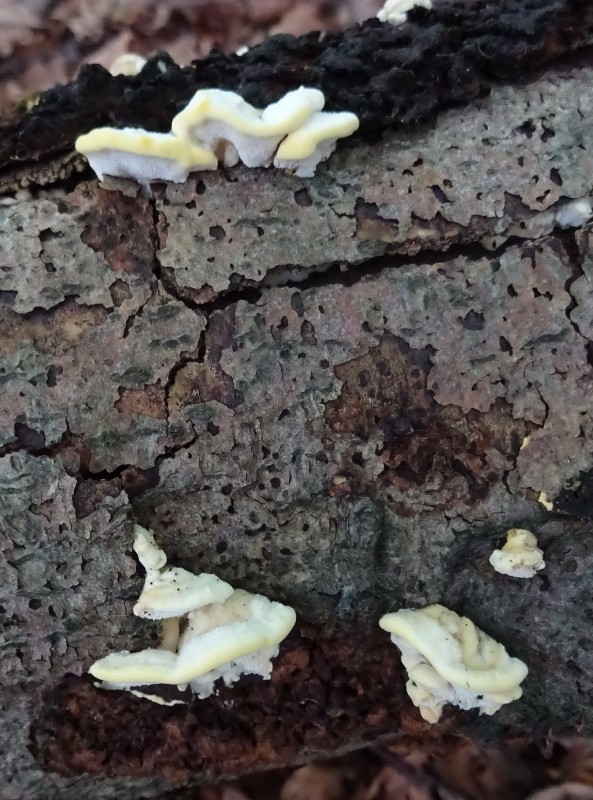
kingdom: Fungi
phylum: Basidiomycota
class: Agaricomycetes
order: Polyporales
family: Steccherinaceae
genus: Antrodiella
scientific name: Antrodiella serpula
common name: gulrandet elastikporesvamp
